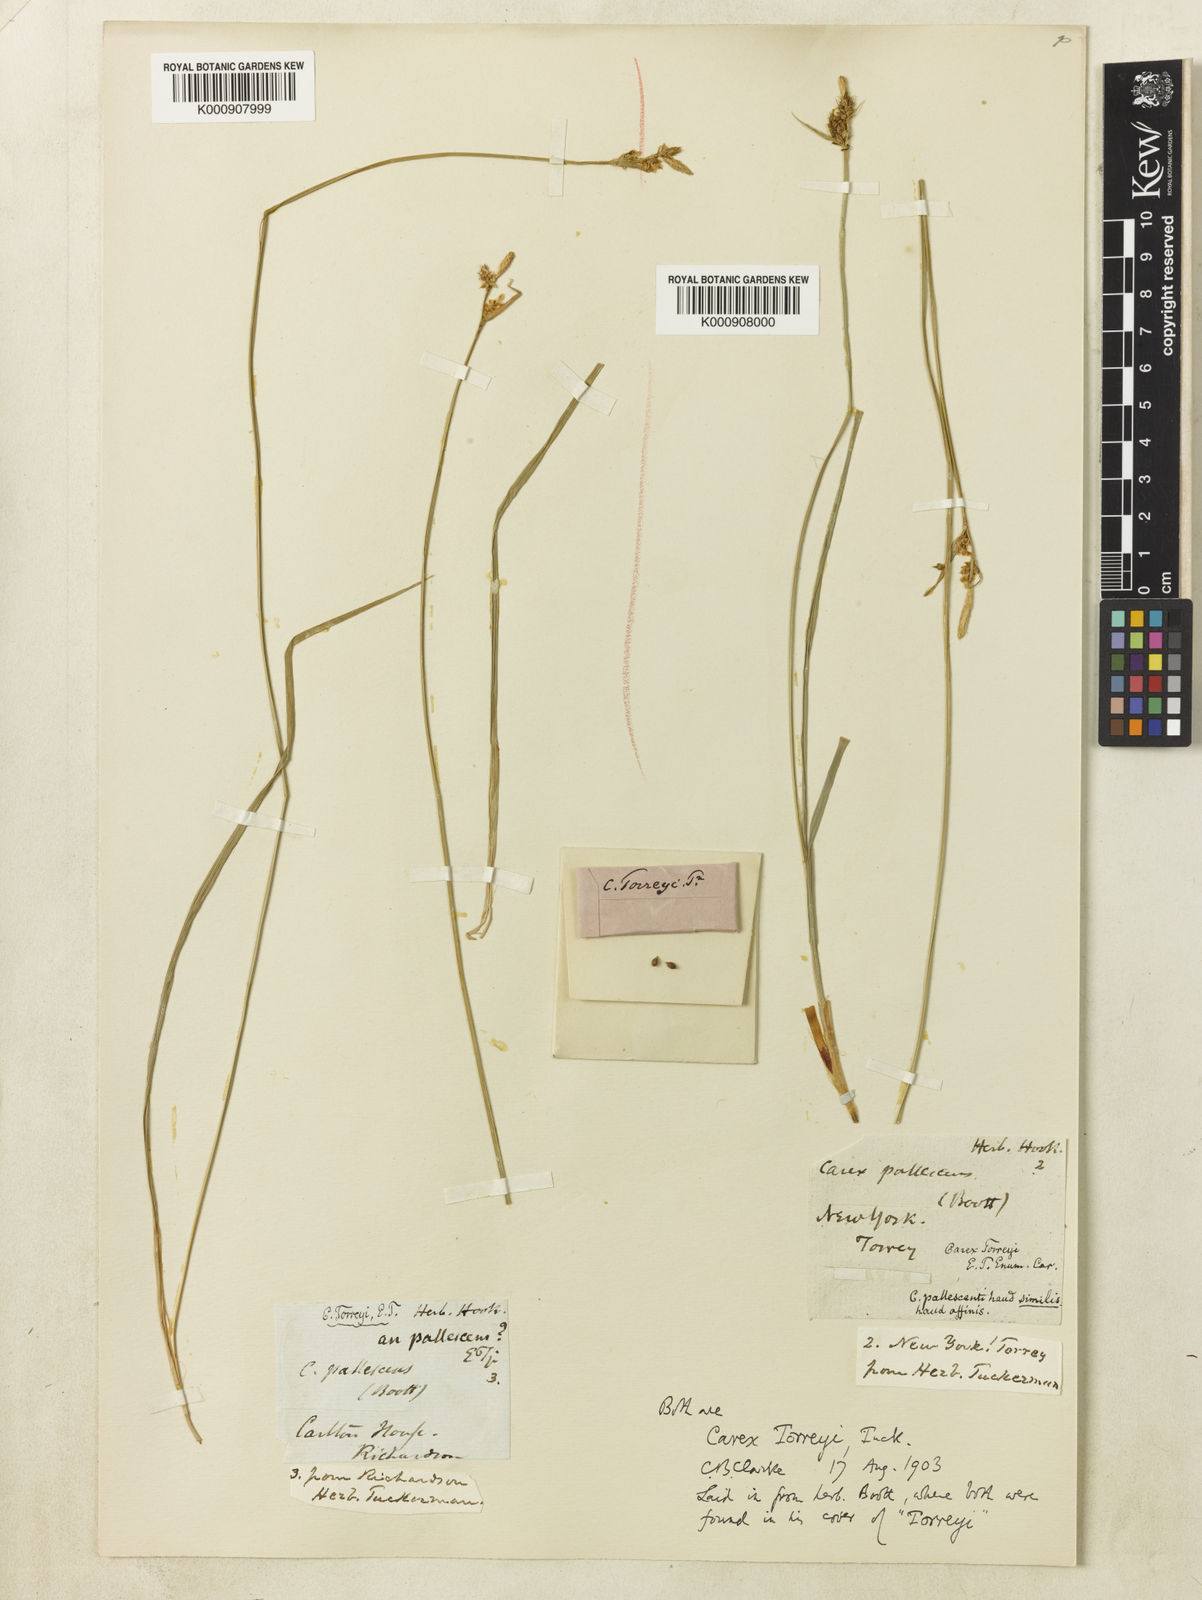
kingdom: Plantae
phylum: Tracheophyta
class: Liliopsida
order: Poales
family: Cyperaceae
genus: Carex
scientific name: Carex torreyi
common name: Torrey's sedge
